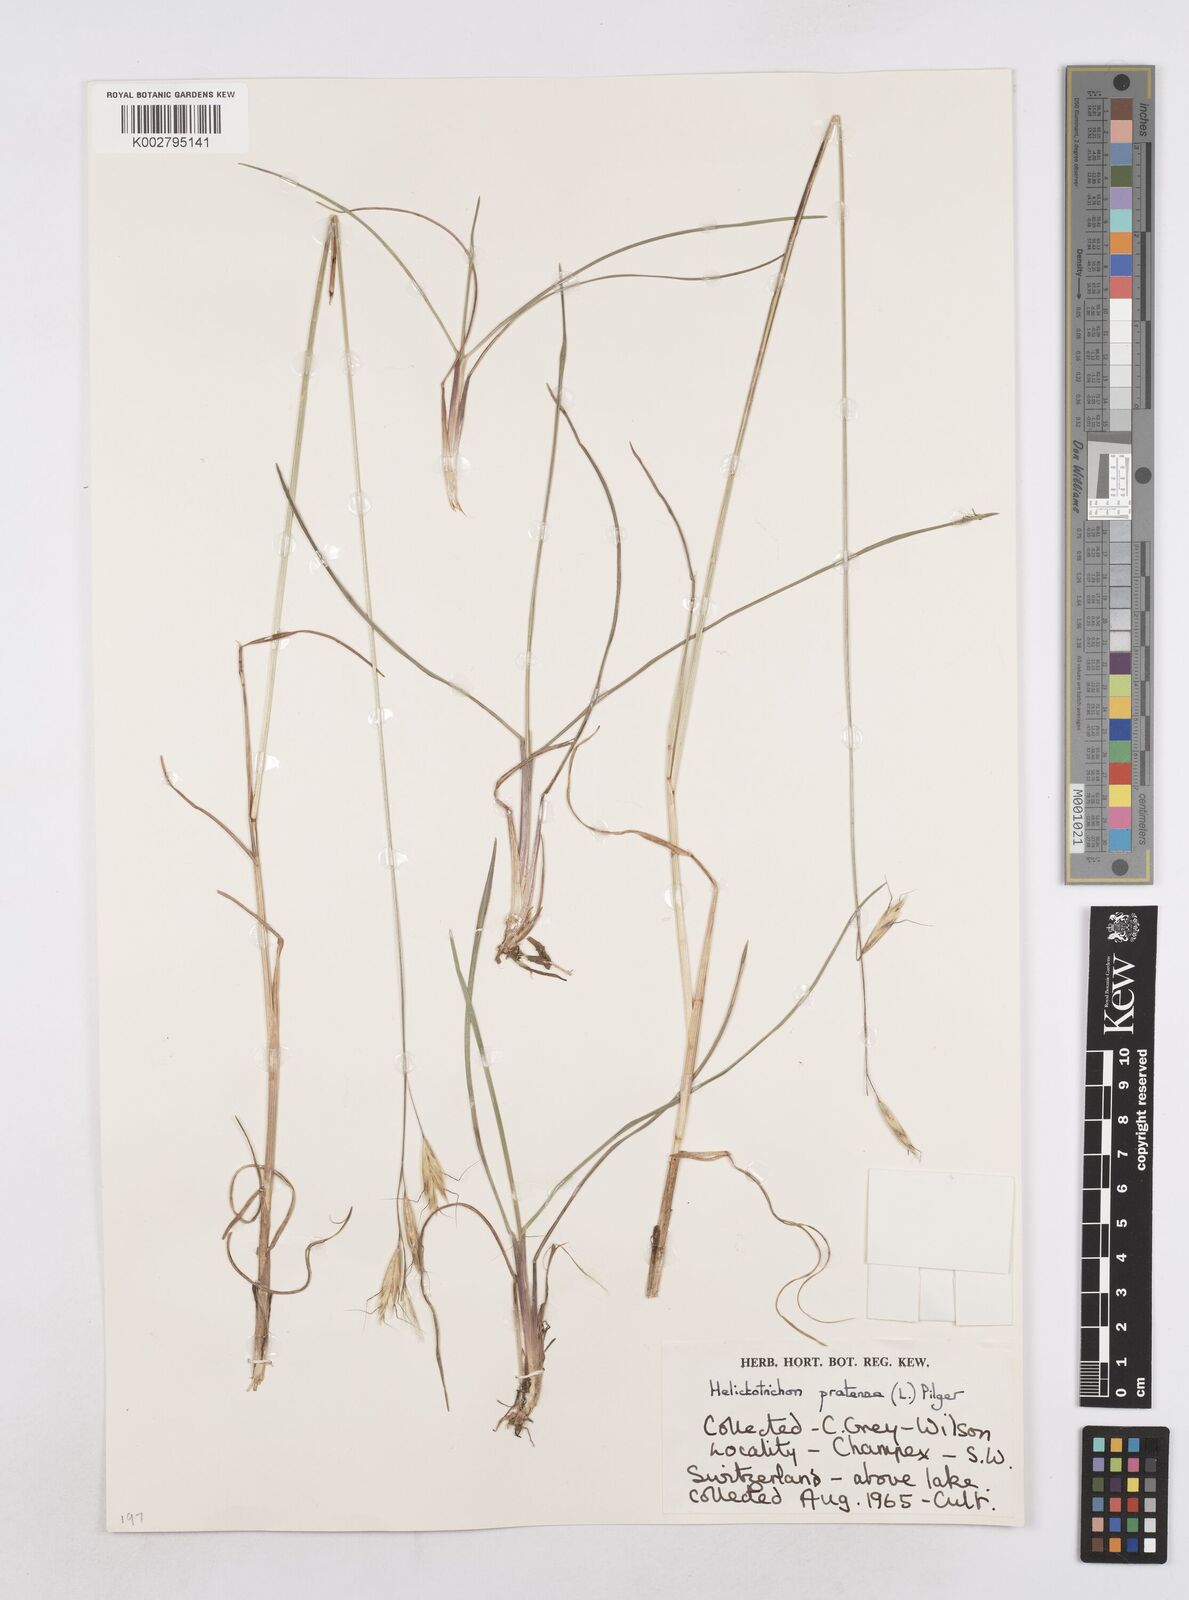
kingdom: Plantae
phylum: Tracheophyta
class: Liliopsida
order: Poales
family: Poaceae
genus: Helictochloa
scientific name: Helictochloa pratensis
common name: Meadow oat grass
